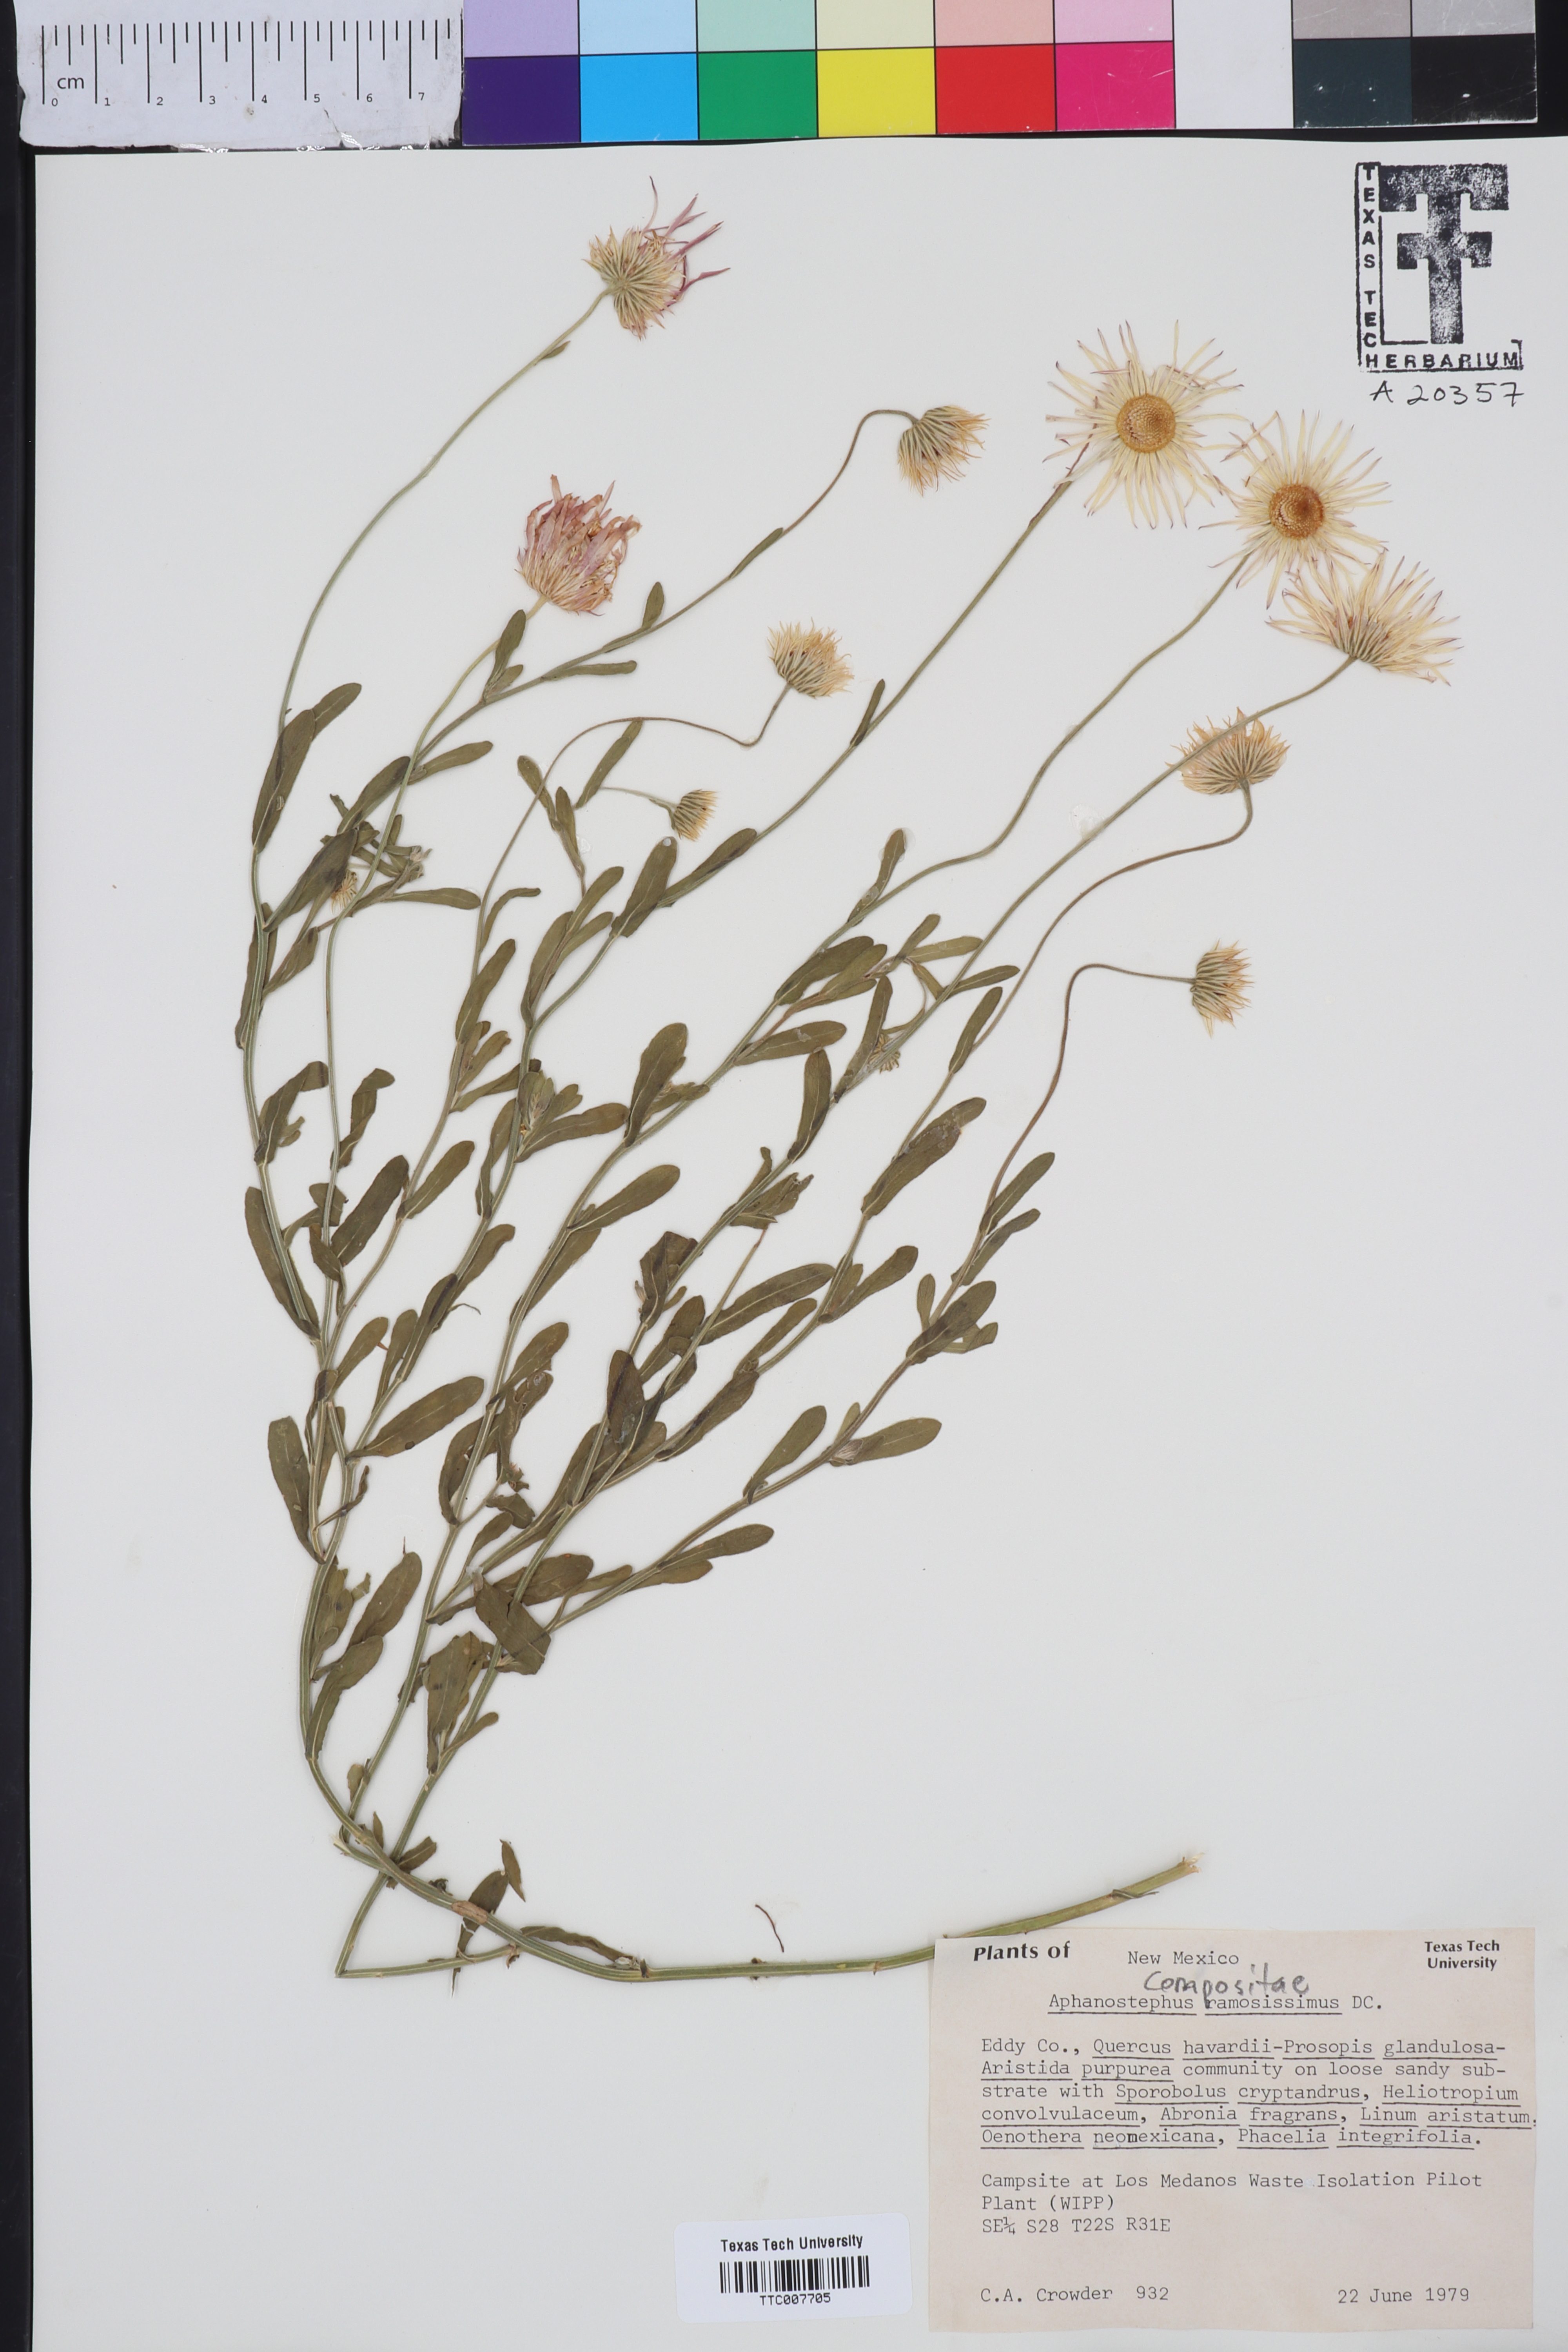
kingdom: Plantae
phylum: Tracheophyta
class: Magnoliopsida
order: Asterales
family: Asteraceae
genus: Aphanostephus
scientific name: Aphanostephus ramosissimus
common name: Plains lazy daisy
